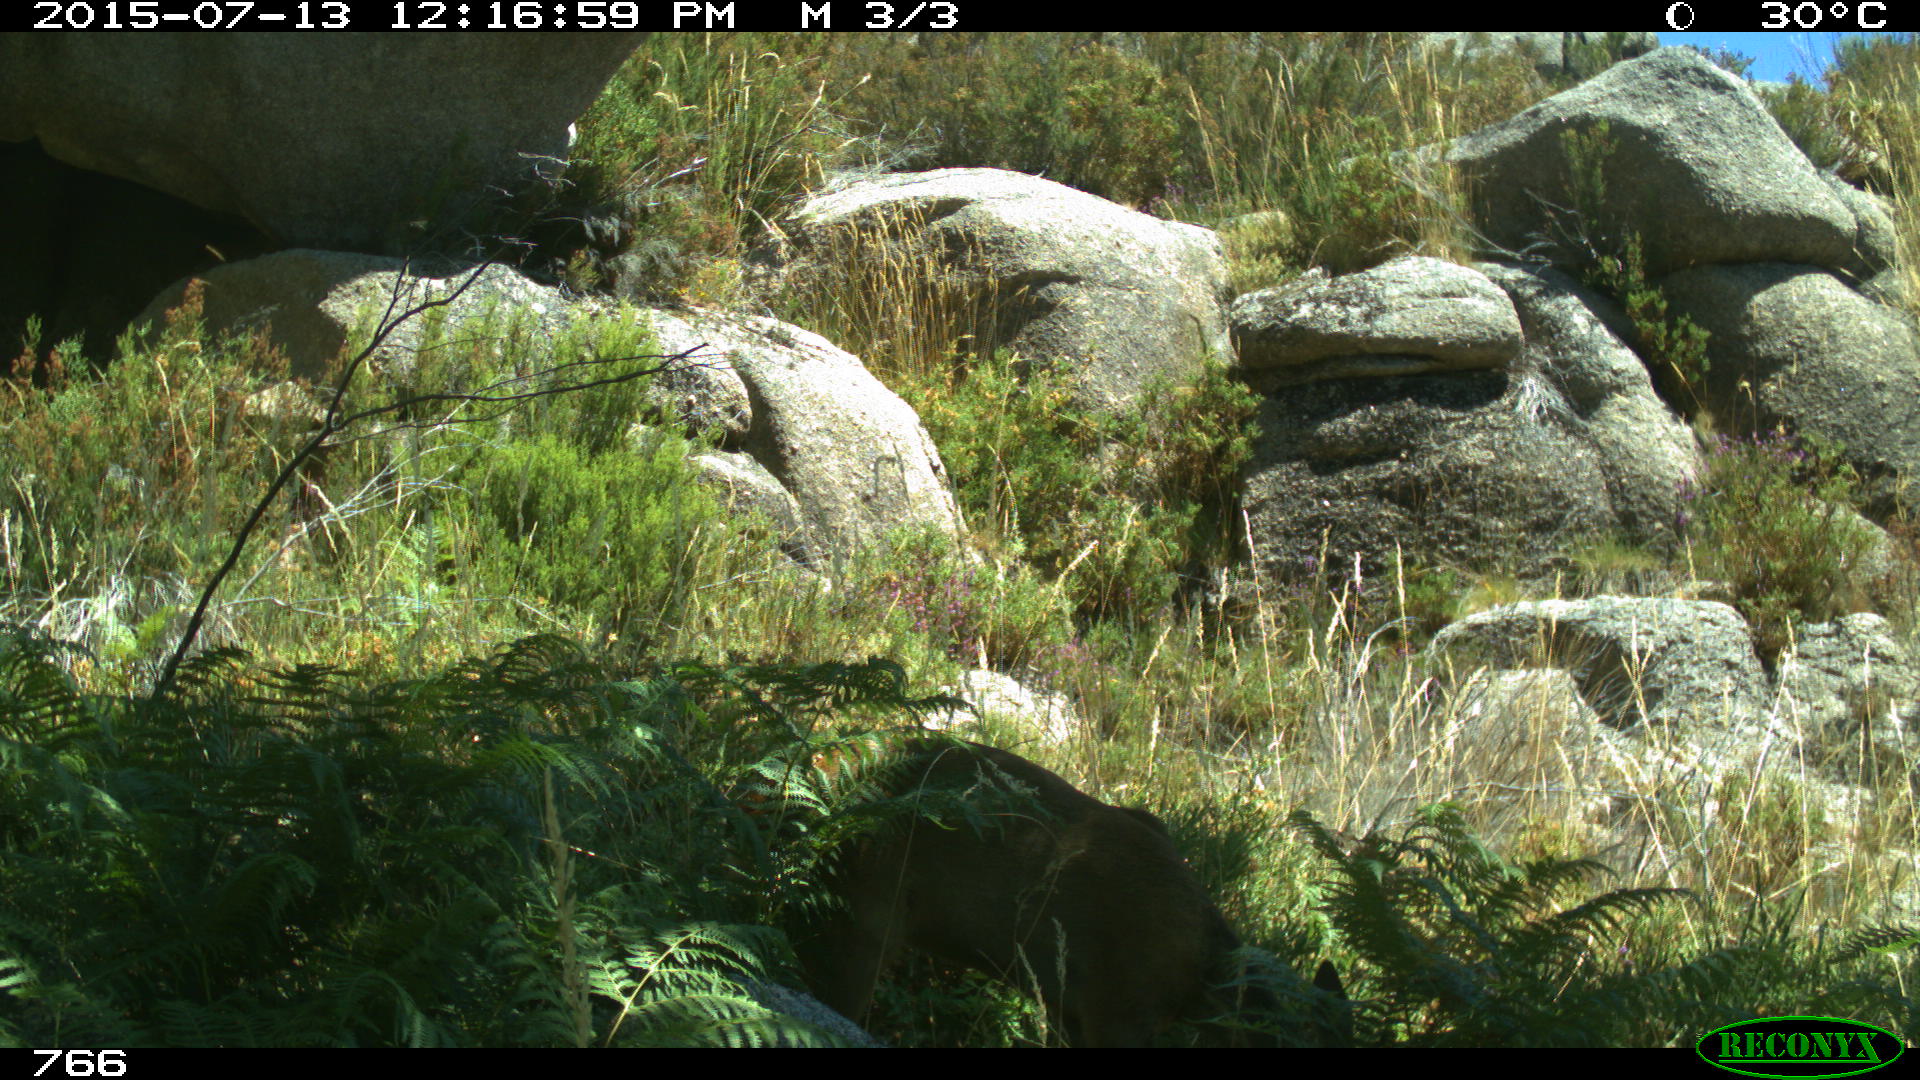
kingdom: Animalia
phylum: Chordata
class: Mammalia
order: Artiodactyla
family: Cervidae
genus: Capreolus
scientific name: Capreolus capreolus
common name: Western roe deer
